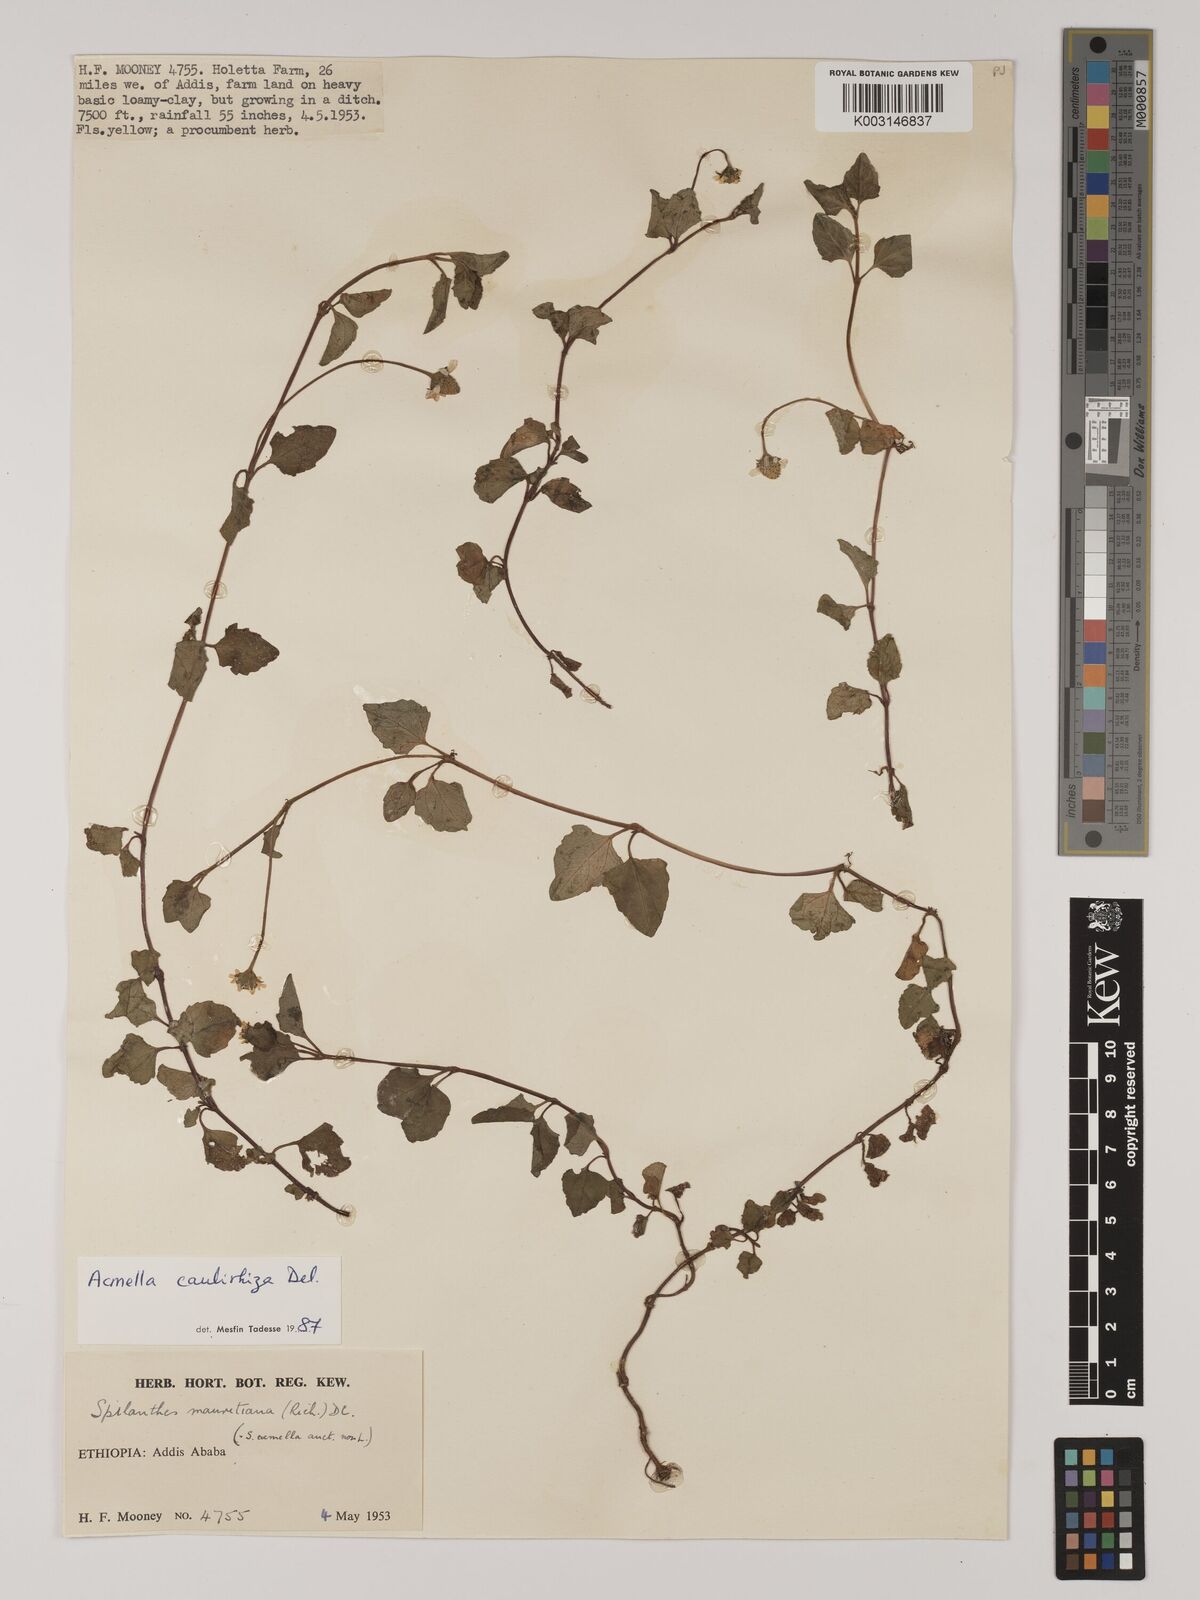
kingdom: Plantae
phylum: Tracheophyta
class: Magnoliopsida
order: Asterales
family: Asteraceae
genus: Acmella
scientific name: Acmella caulirhiza
